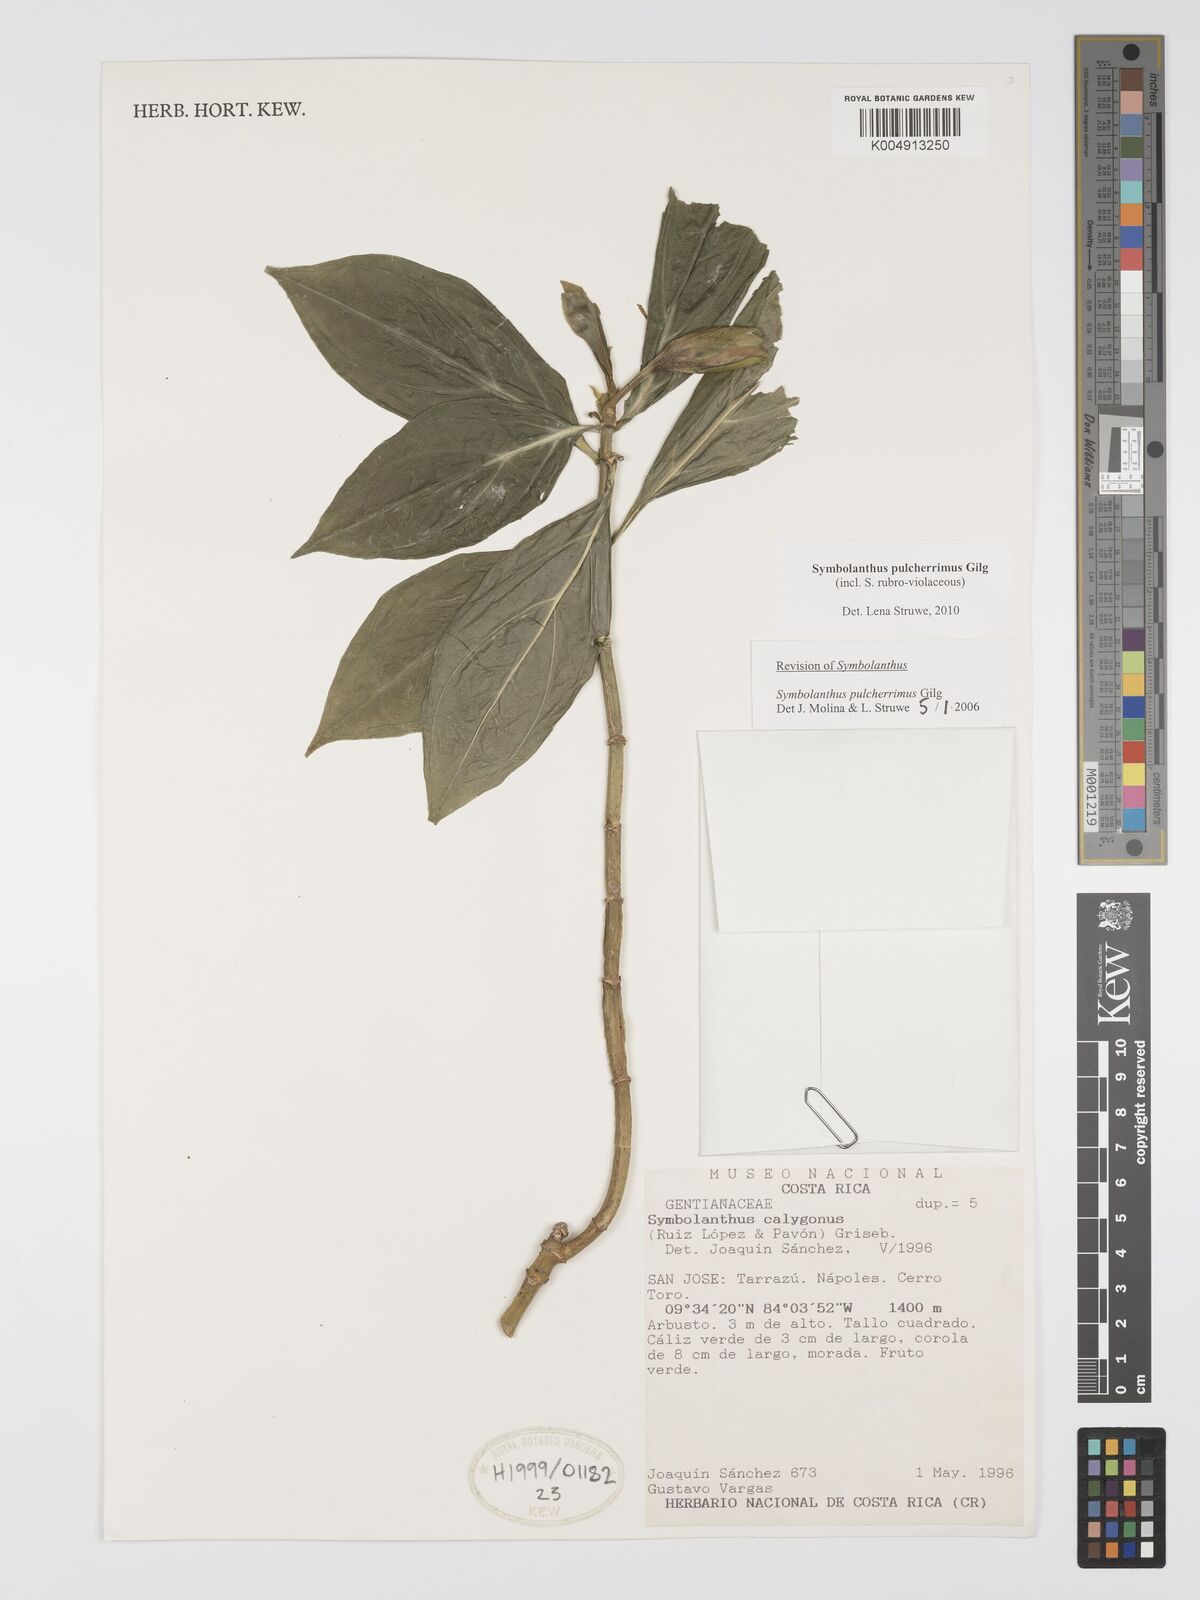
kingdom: Plantae
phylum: Tracheophyta
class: Magnoliopsida
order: Gentianales
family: Gentianaceae
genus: Symbolanthus
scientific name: Symbolanthus pulcherrimus
